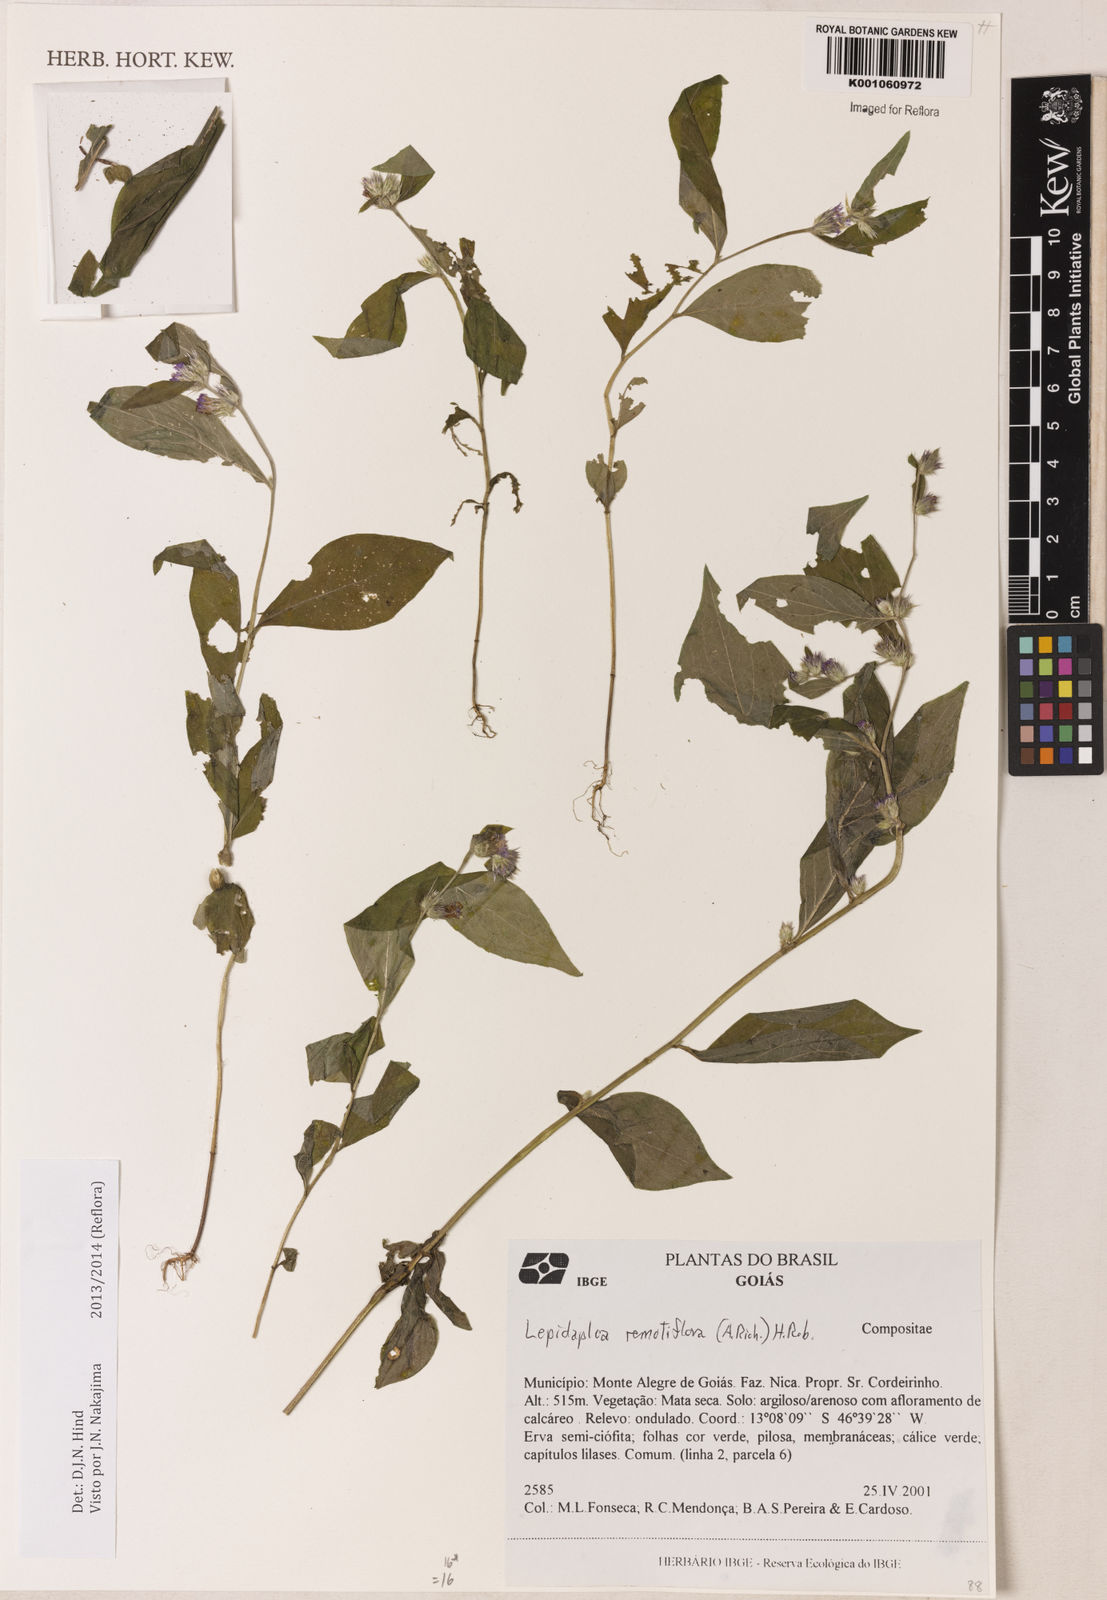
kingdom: Plantae
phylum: Tracheophyta
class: Magnoliopsida
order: Asterales
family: Asteraceae
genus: Lepidaploa
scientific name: Lepidaploa remotiflora
